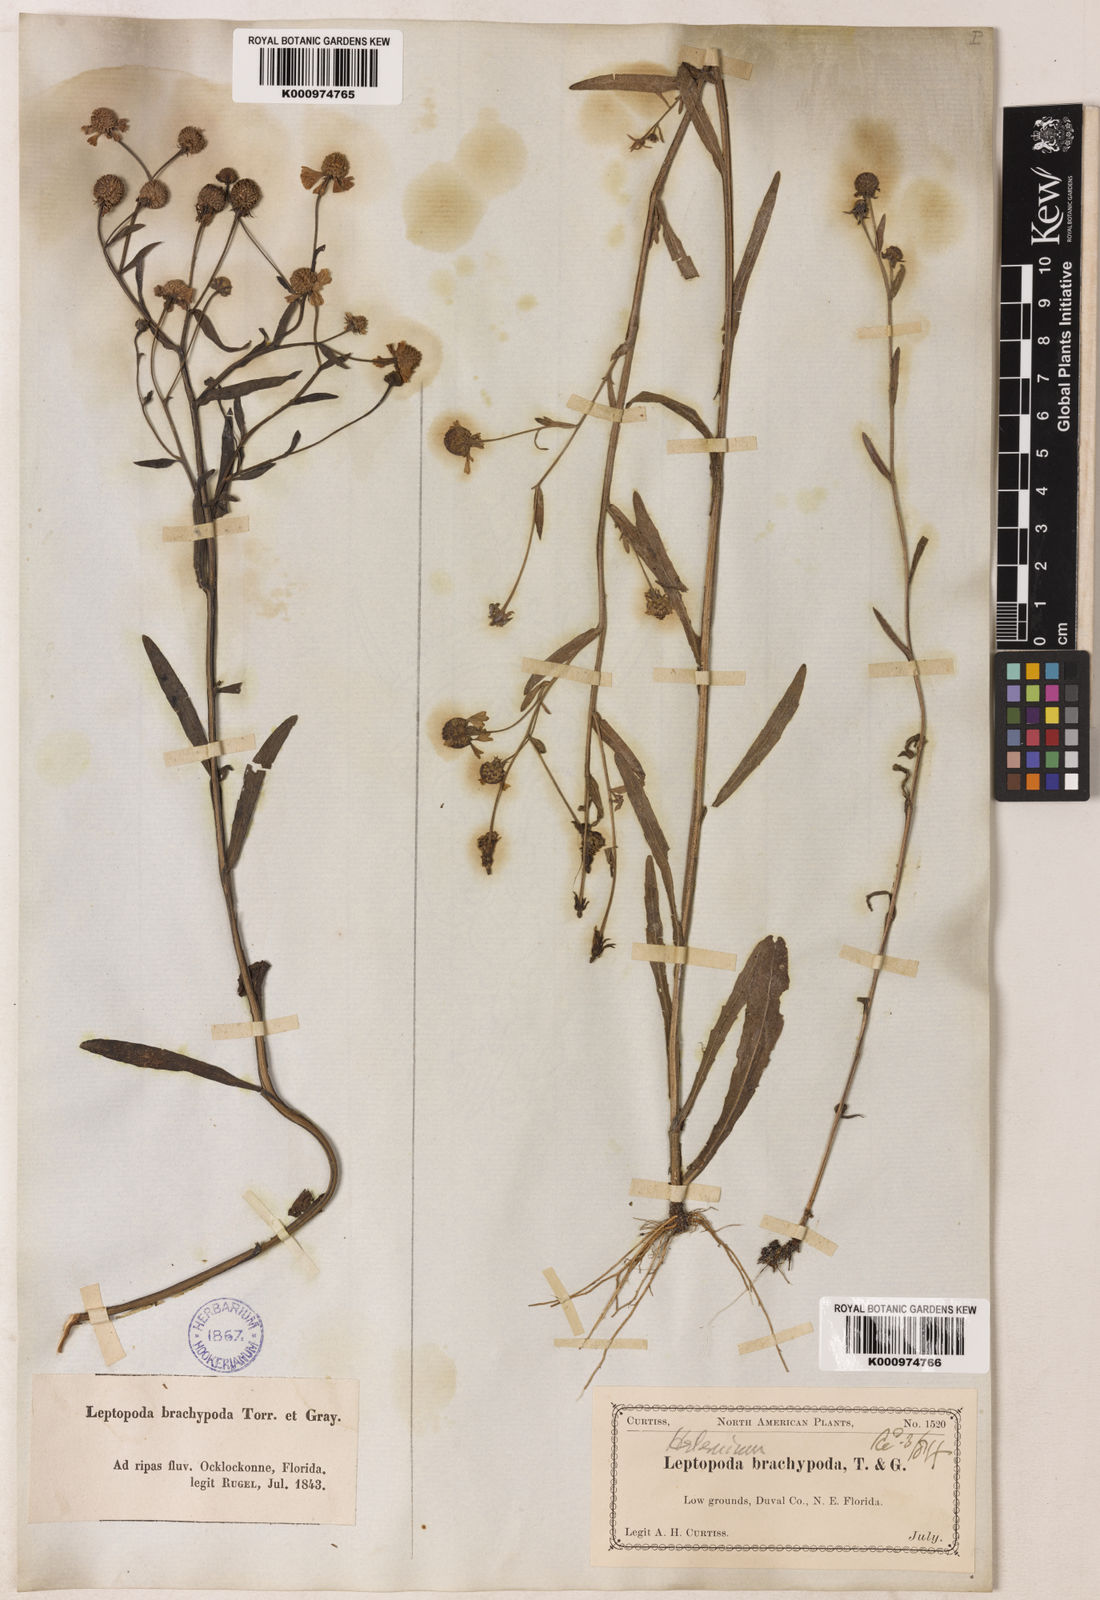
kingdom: Plantae
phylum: Tracheophyta
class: Magnoliopsida
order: Asterales
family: Asteraceae
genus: Helenium
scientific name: Helenium flexuosum
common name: Naked-flowered sneezeweed
